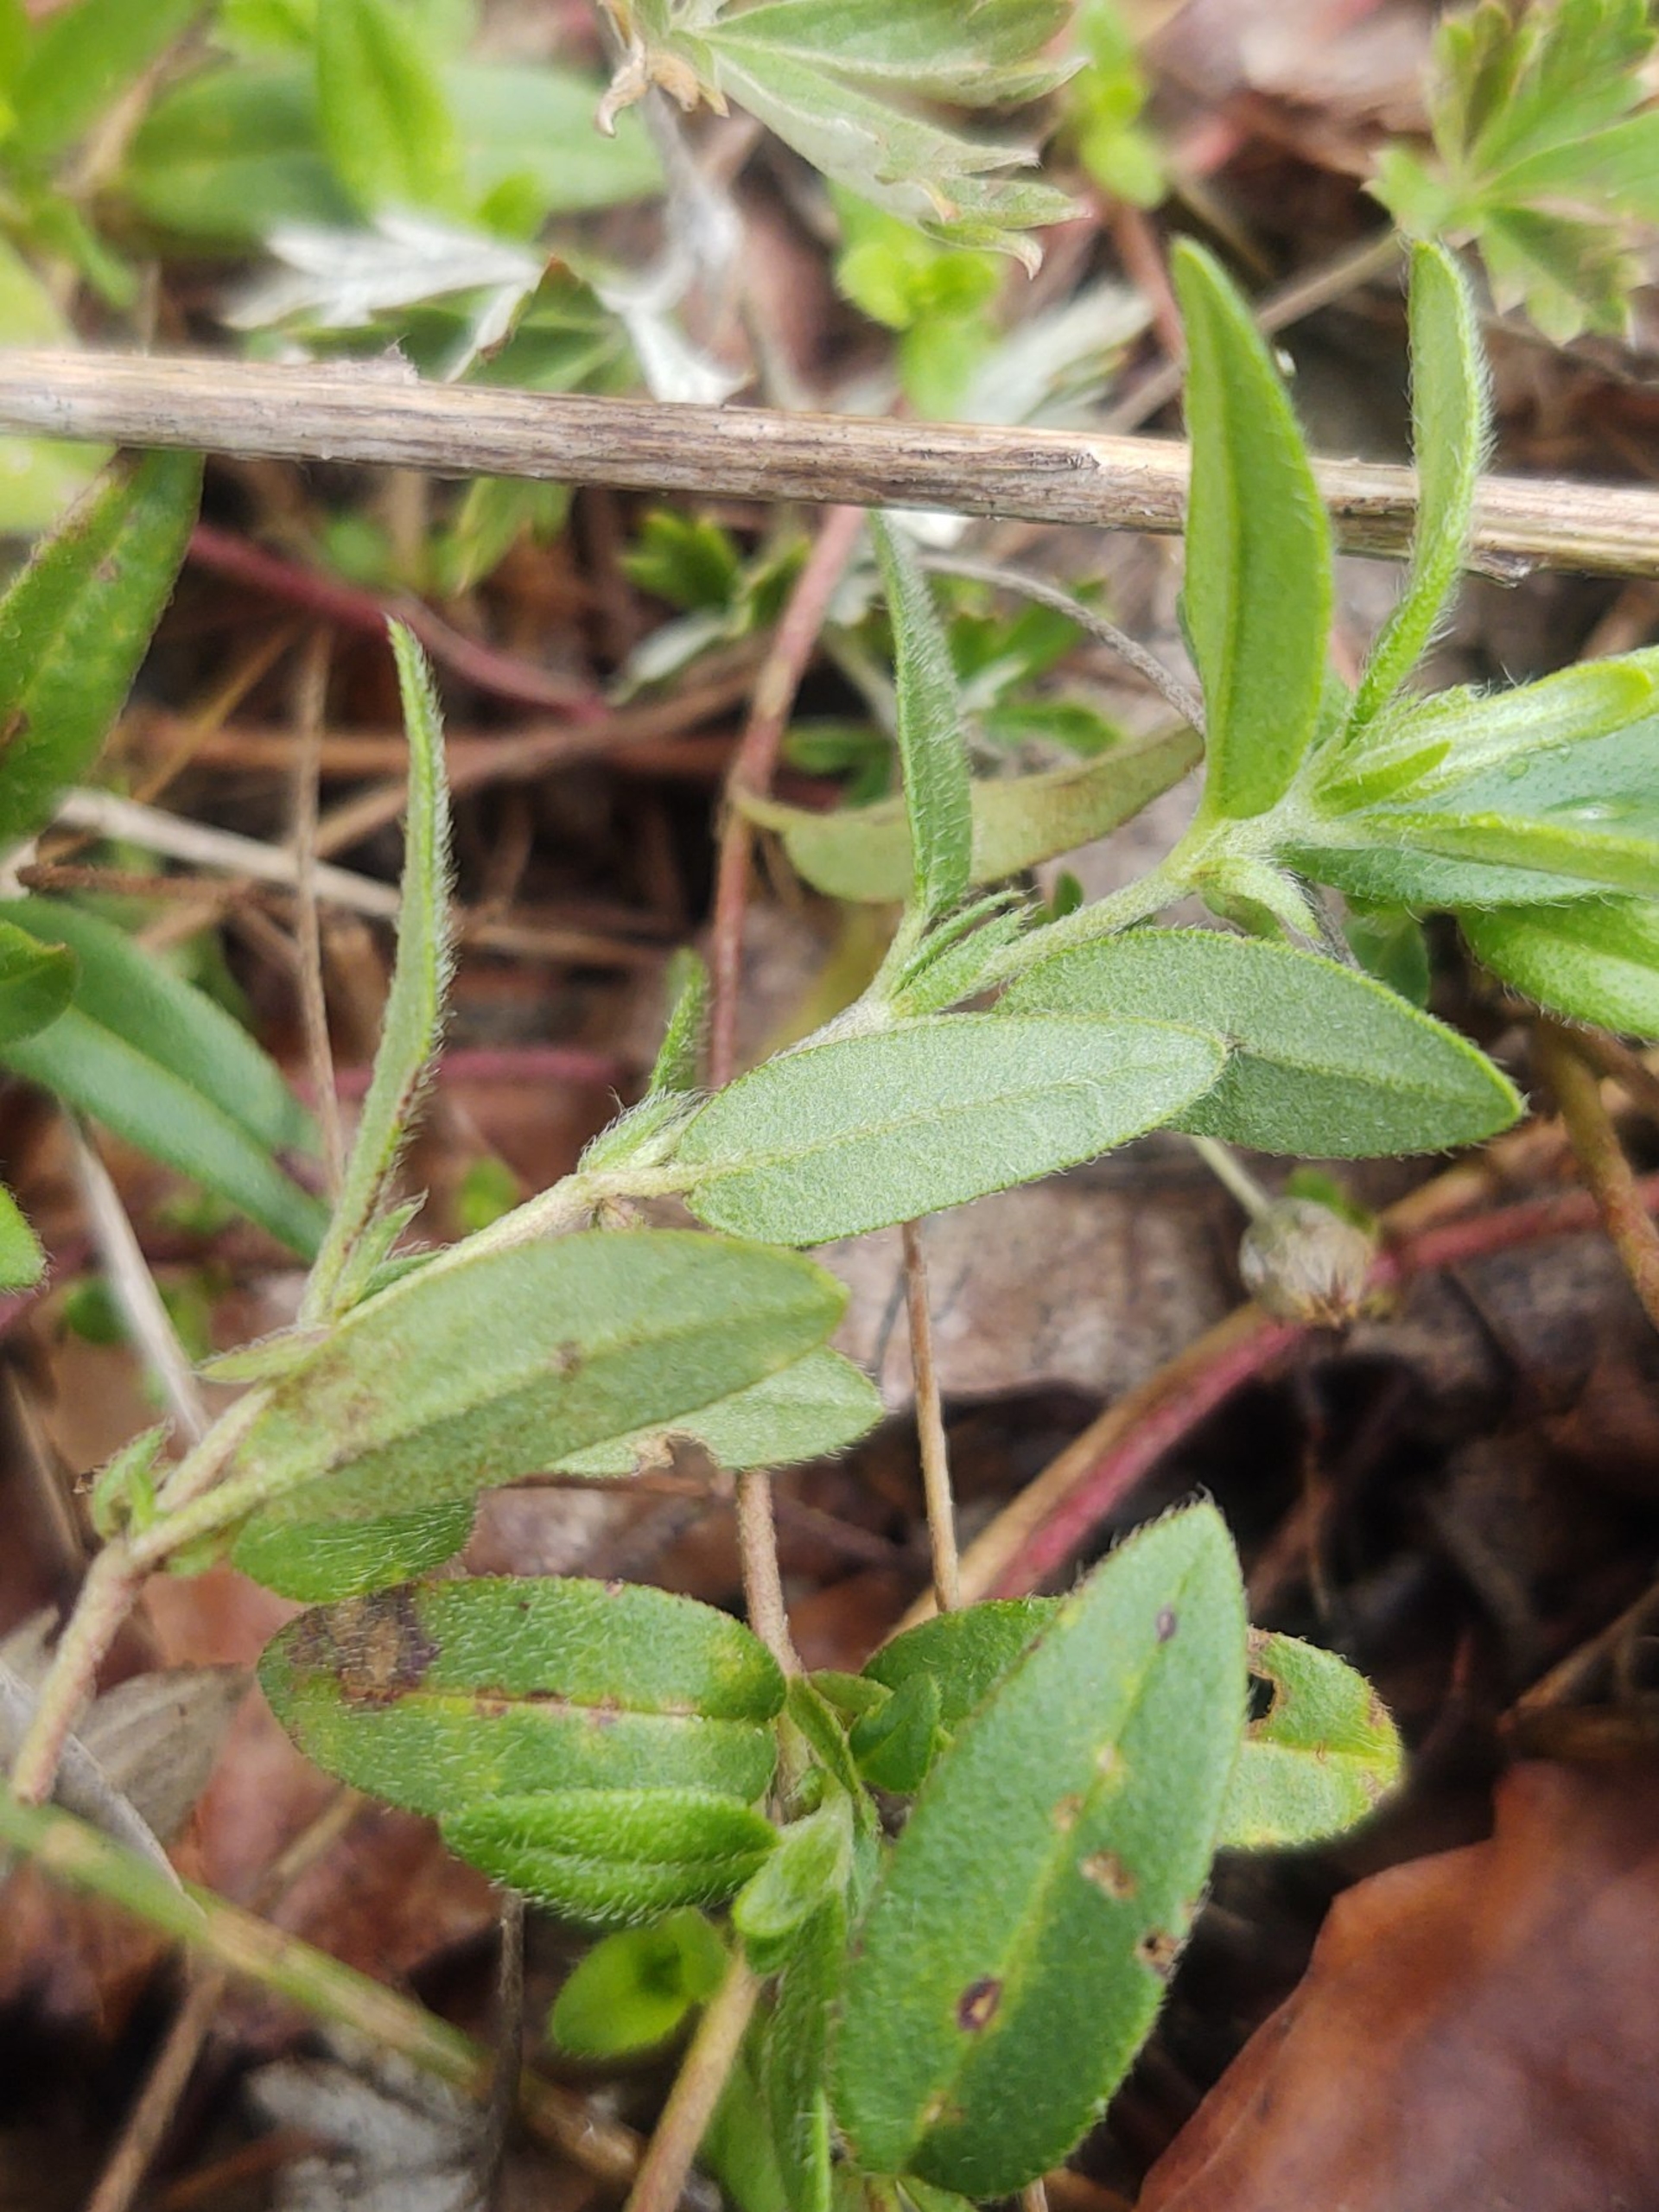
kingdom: Plantae
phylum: Tracheophyta
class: Magnoliopsida
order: Malvales
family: Cistaceae
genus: Helianthemum
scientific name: Helianthemum nummularium
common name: Bakke-soløje
